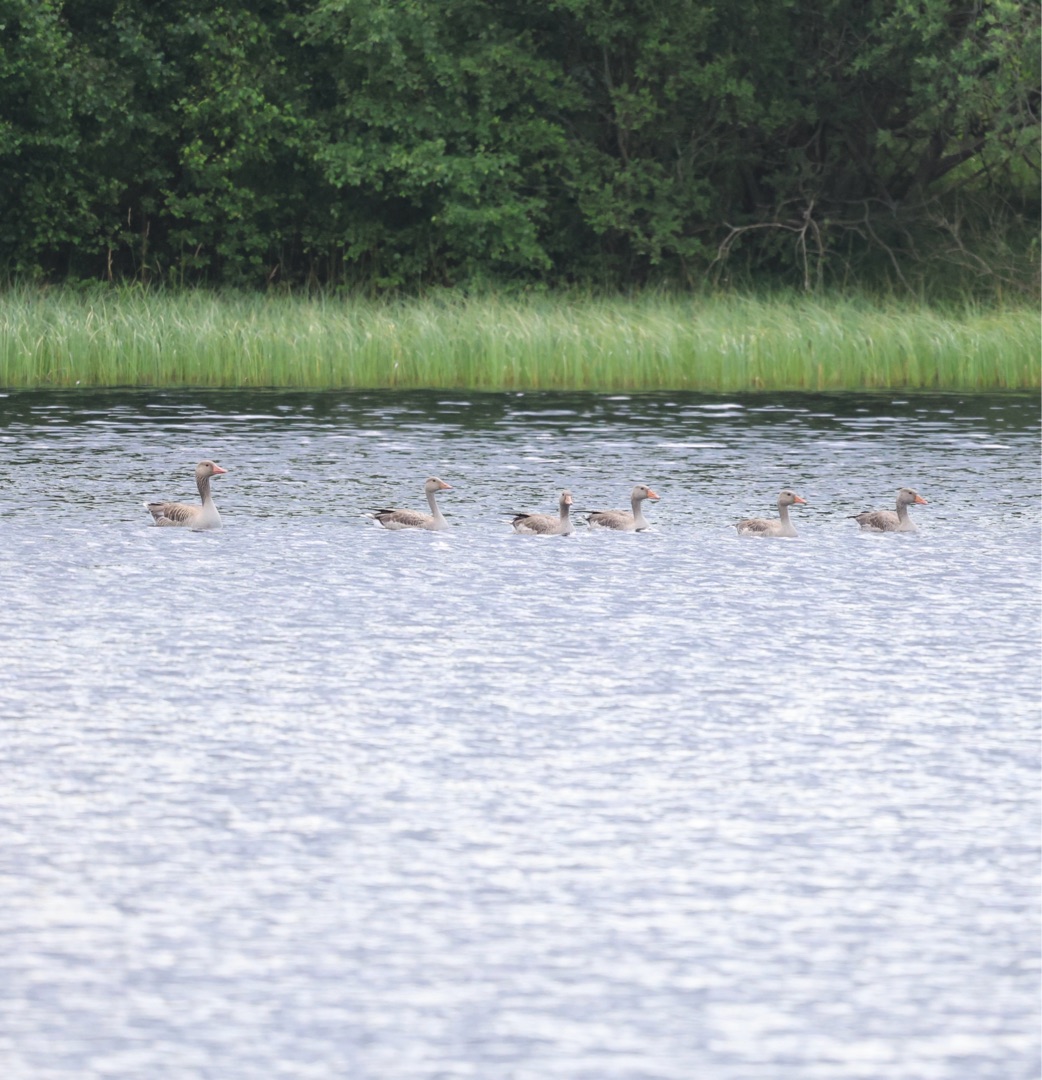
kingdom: Animalia
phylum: Chordata
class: Aves
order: Anseriformes
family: Anatidae
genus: Anser
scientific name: Anser anser
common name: Grågås
